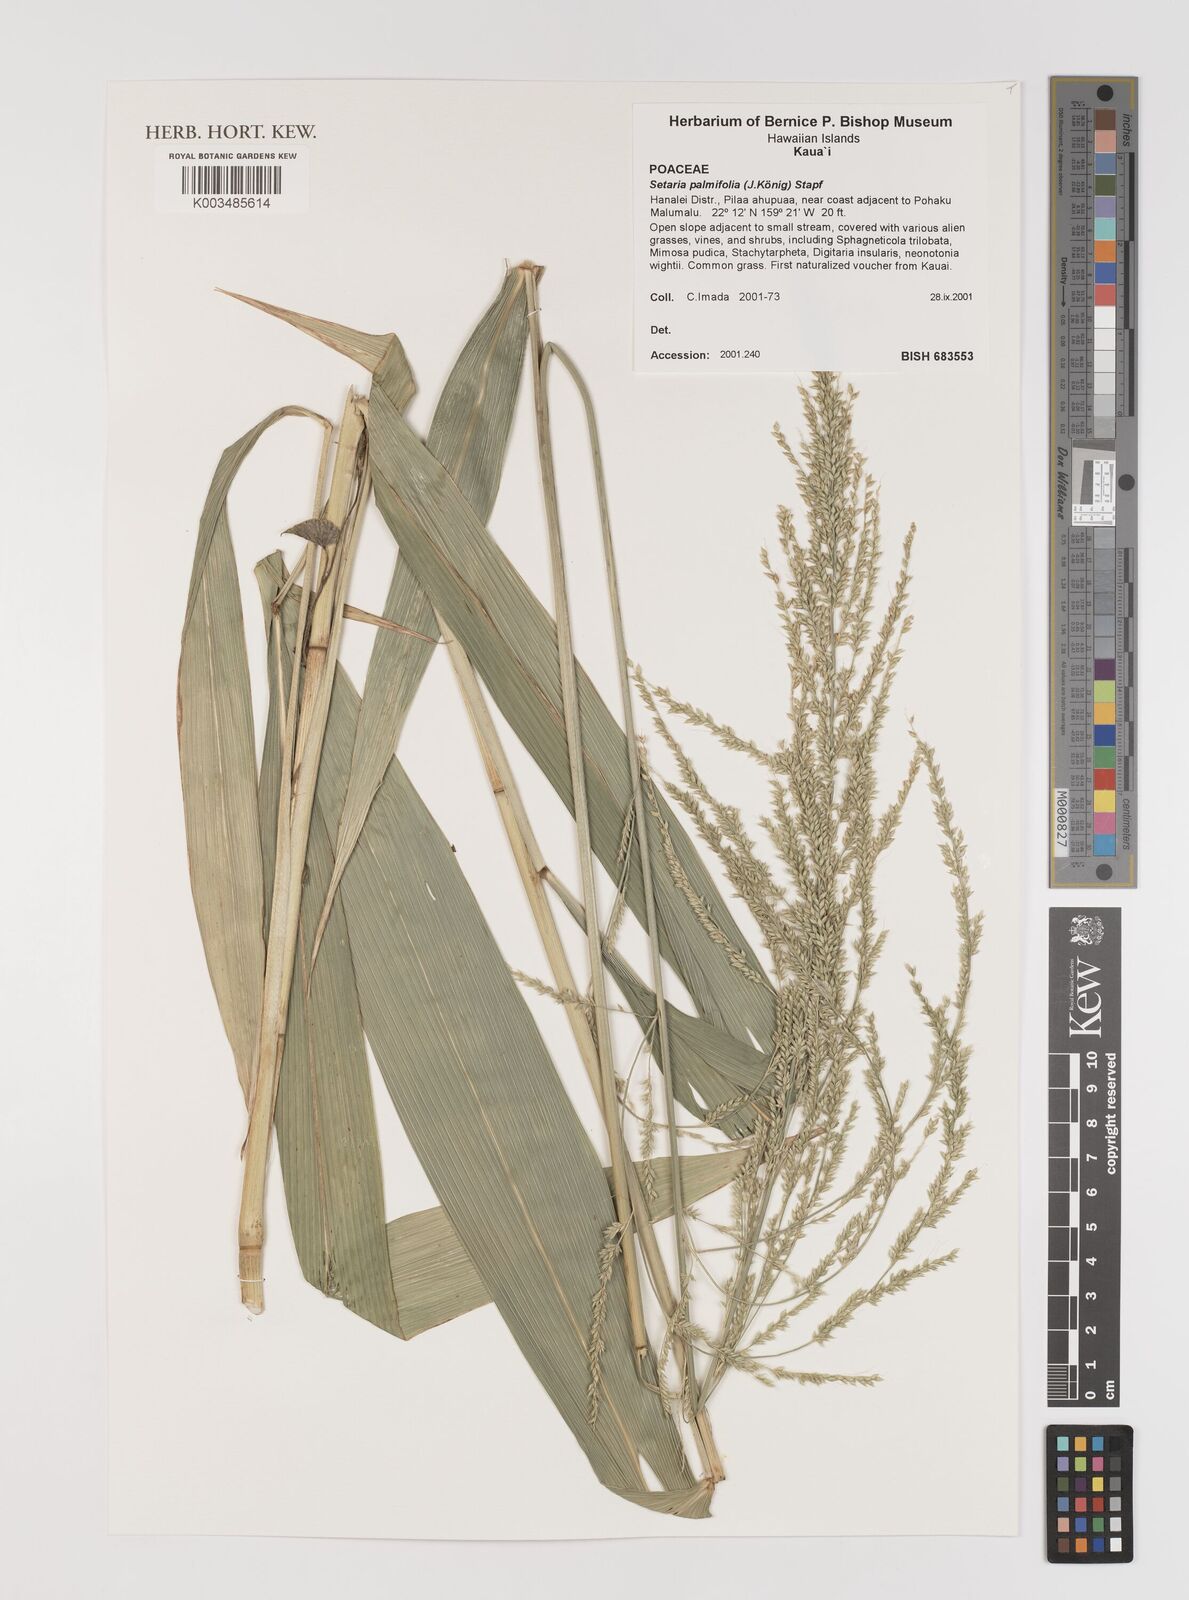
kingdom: Plantae
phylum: Tracheophyta
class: Liliopsida
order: Poales
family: Poaceae
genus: Setaria
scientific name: Setaria palmifolia
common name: Broadleaved bristlegrass
